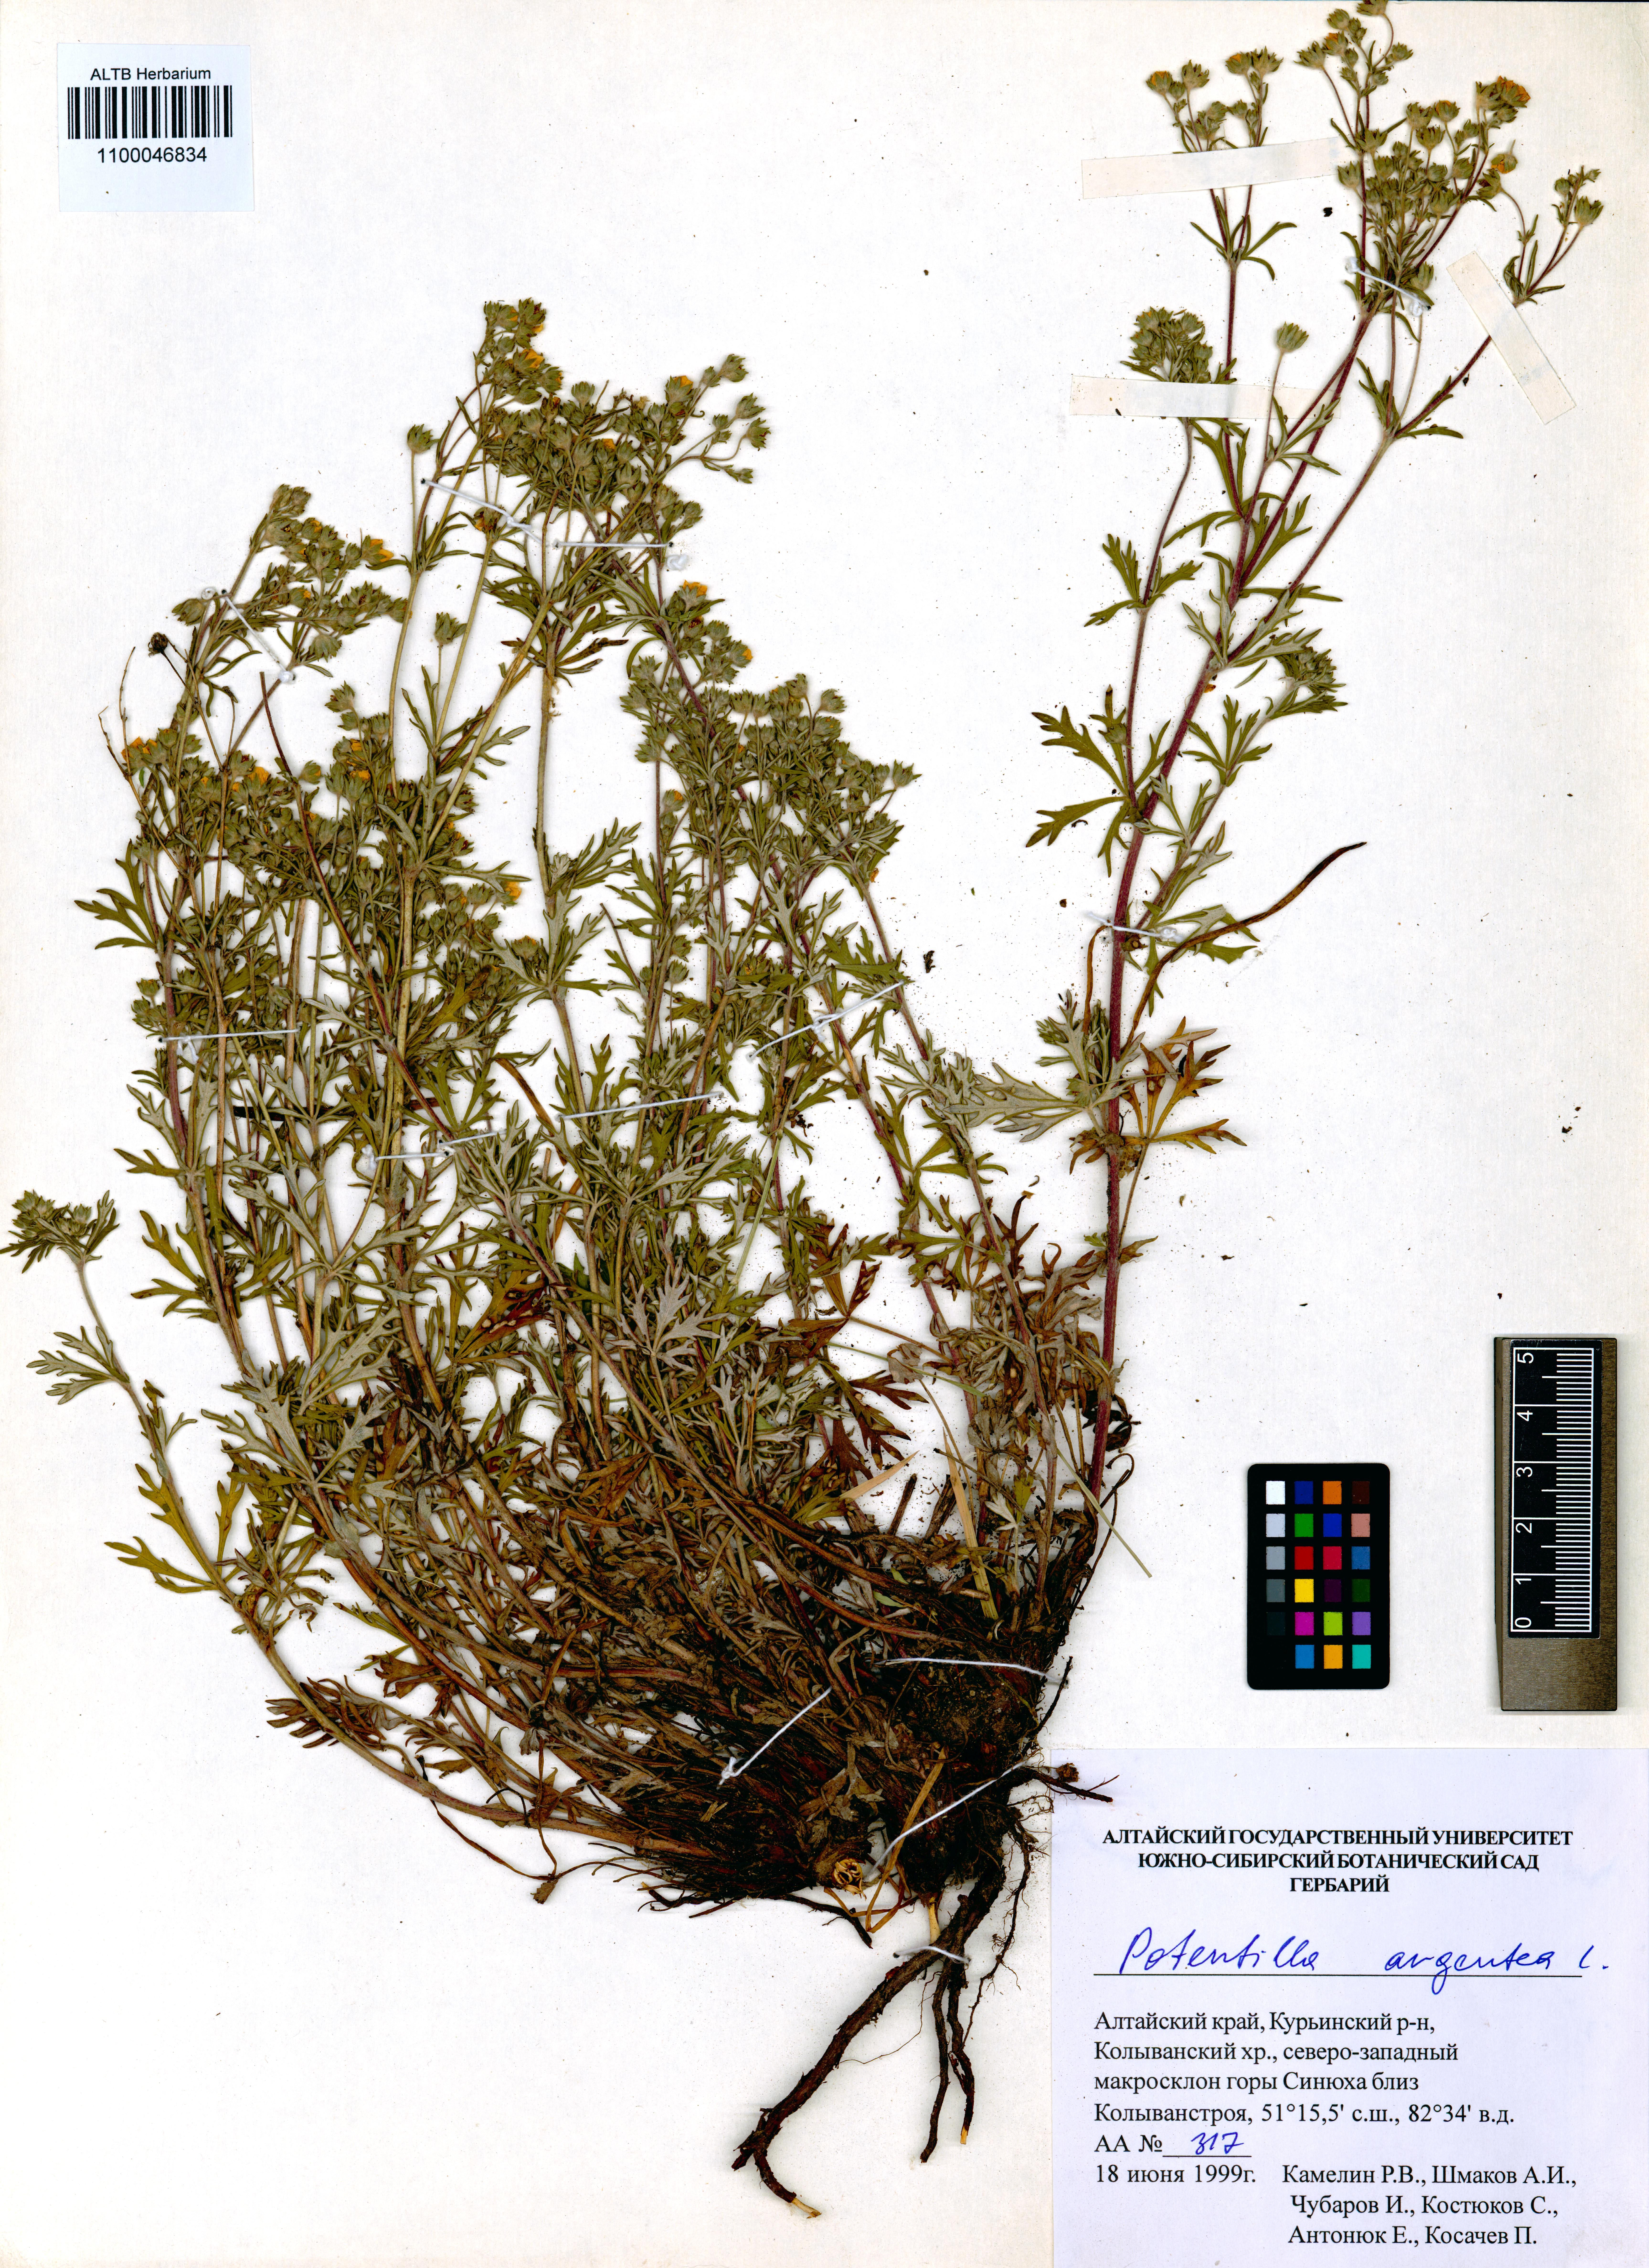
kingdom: Plantae
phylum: Tracheophyta
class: Magnoliopsida
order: Rosales
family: Rosaceae
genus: Potentilla
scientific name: Potentilla argentea
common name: Hoary cinquefoil
